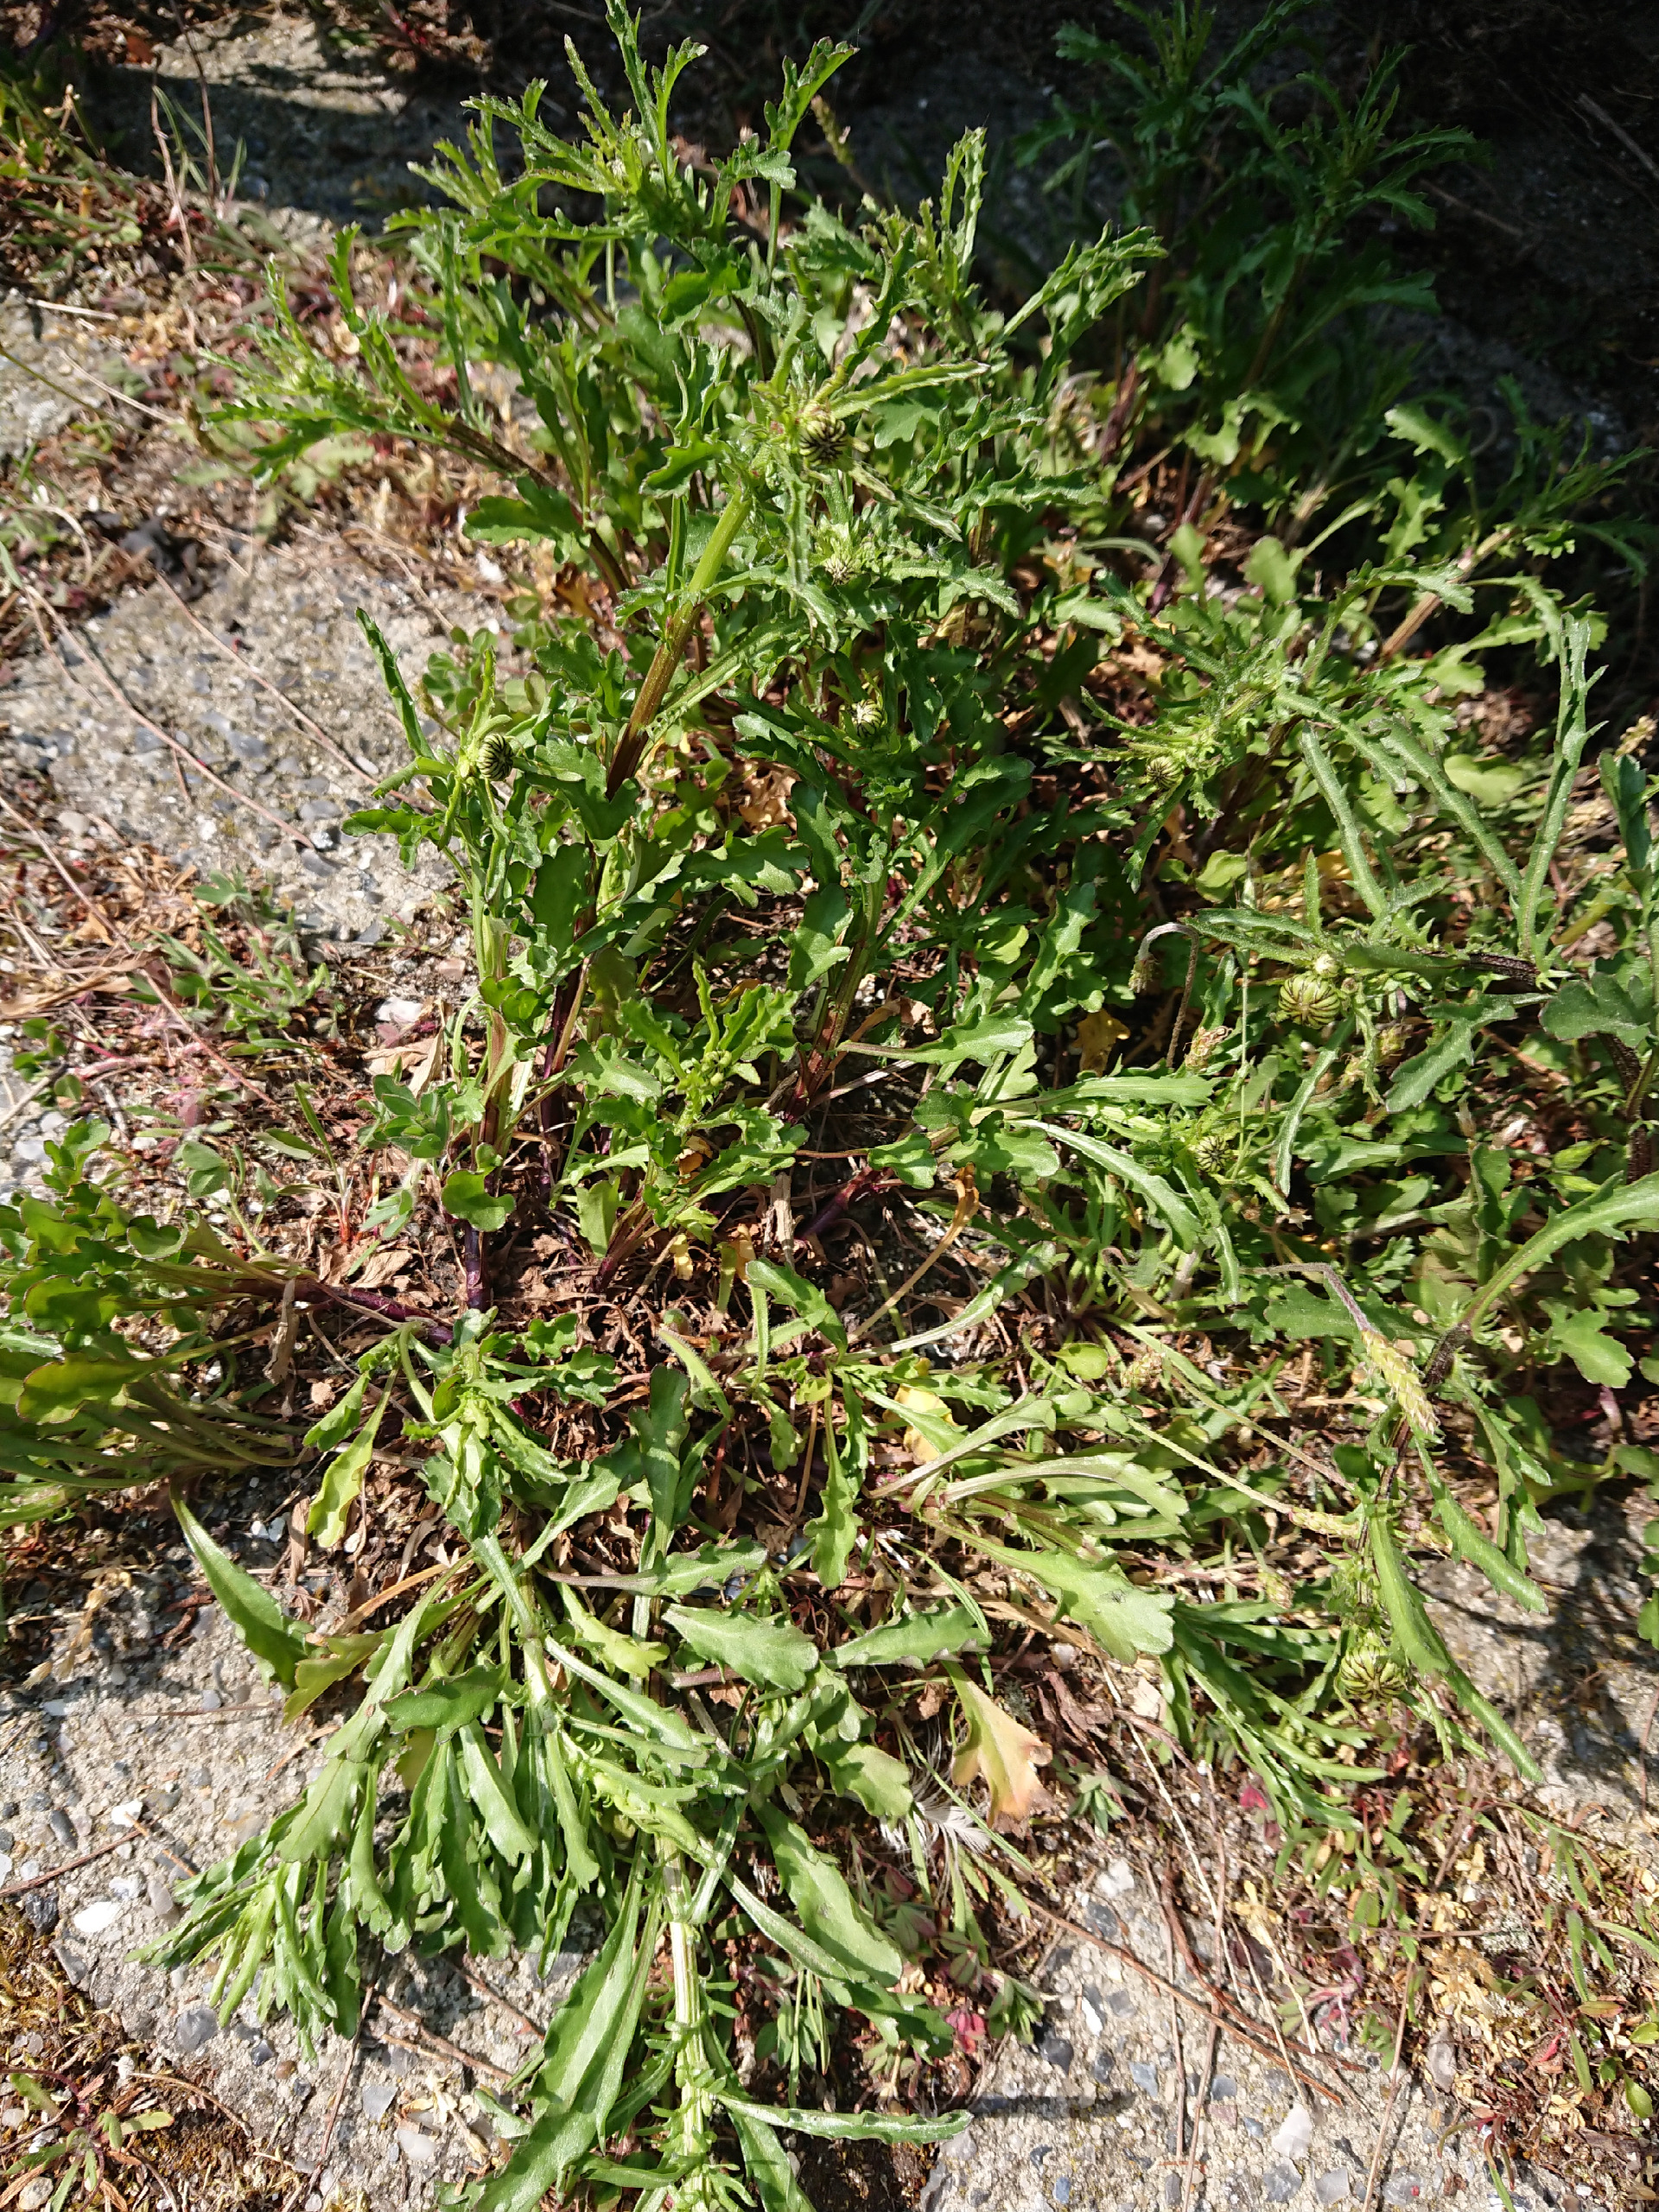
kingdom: Plantae
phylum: Tracheophyta
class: Magnoliopsida
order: Asterales
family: Asteraceae
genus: Leucanthemum
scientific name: Leucanthemum vulgare
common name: Hvid okseøje
